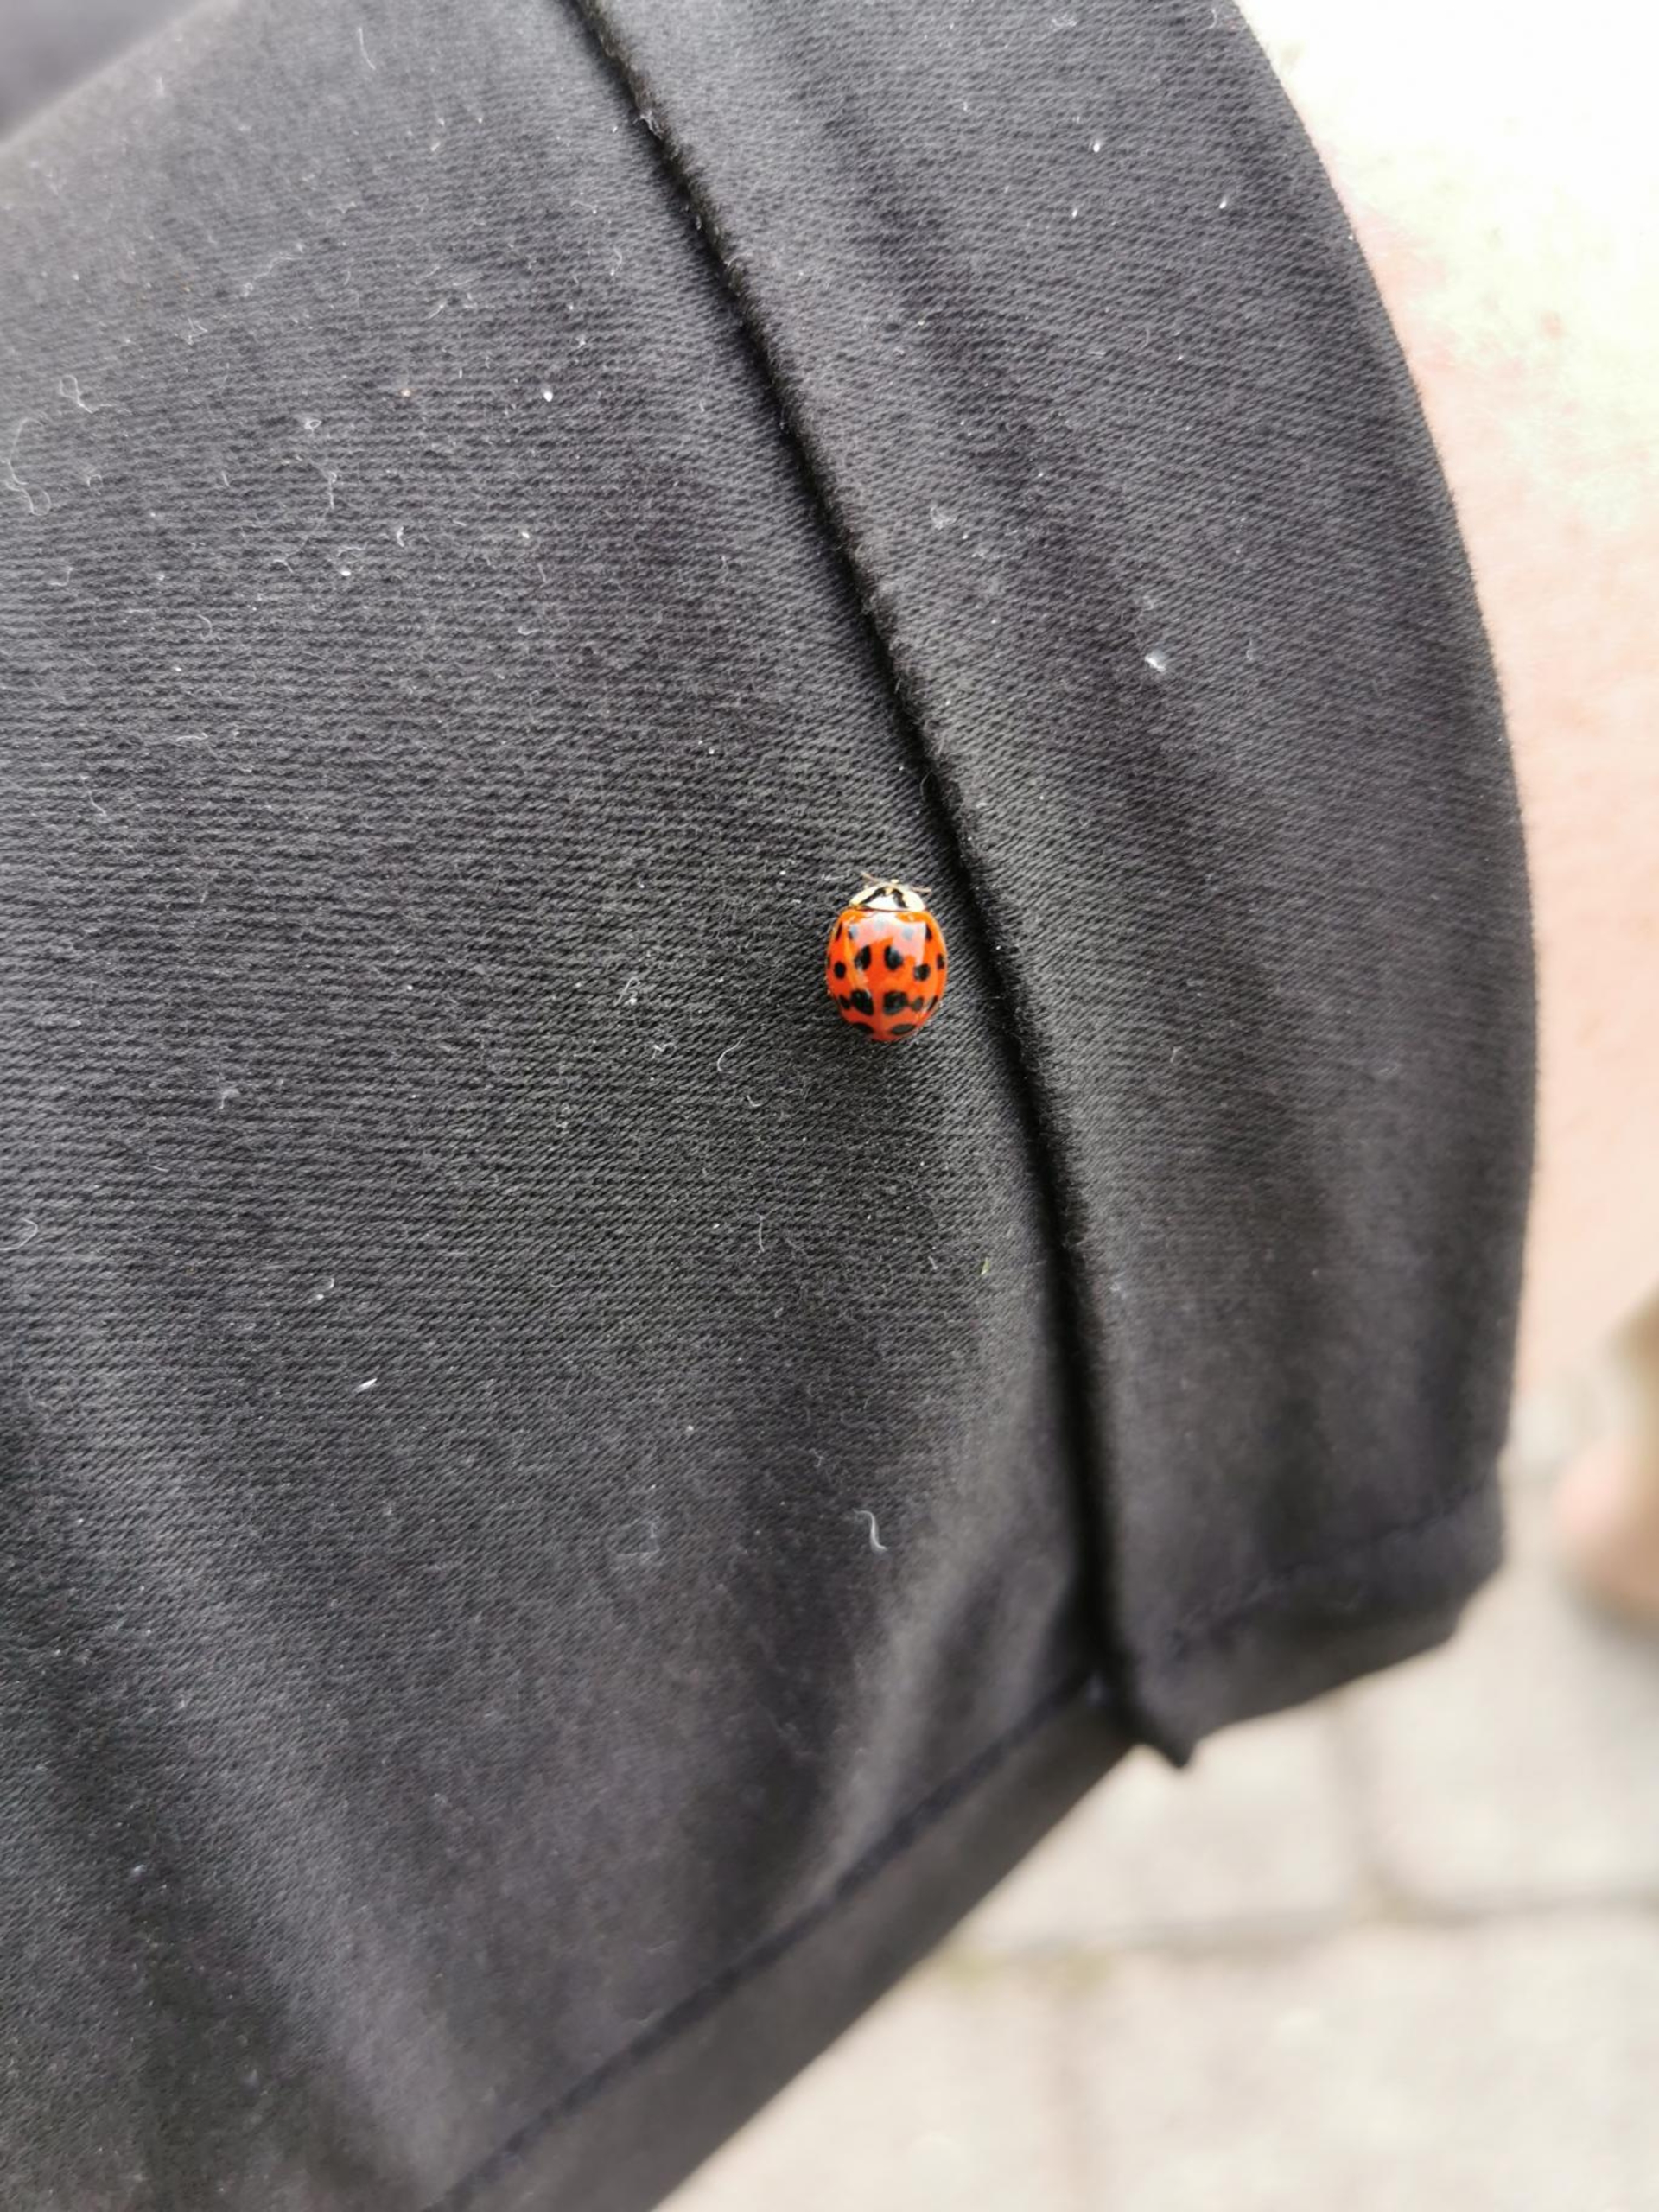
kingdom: Animalia
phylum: Arthropoda
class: Insecta
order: Coleoptera
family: Coccinellidae
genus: Harmonia
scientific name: Harmonia axyridis
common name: Harlekinmariehøne
